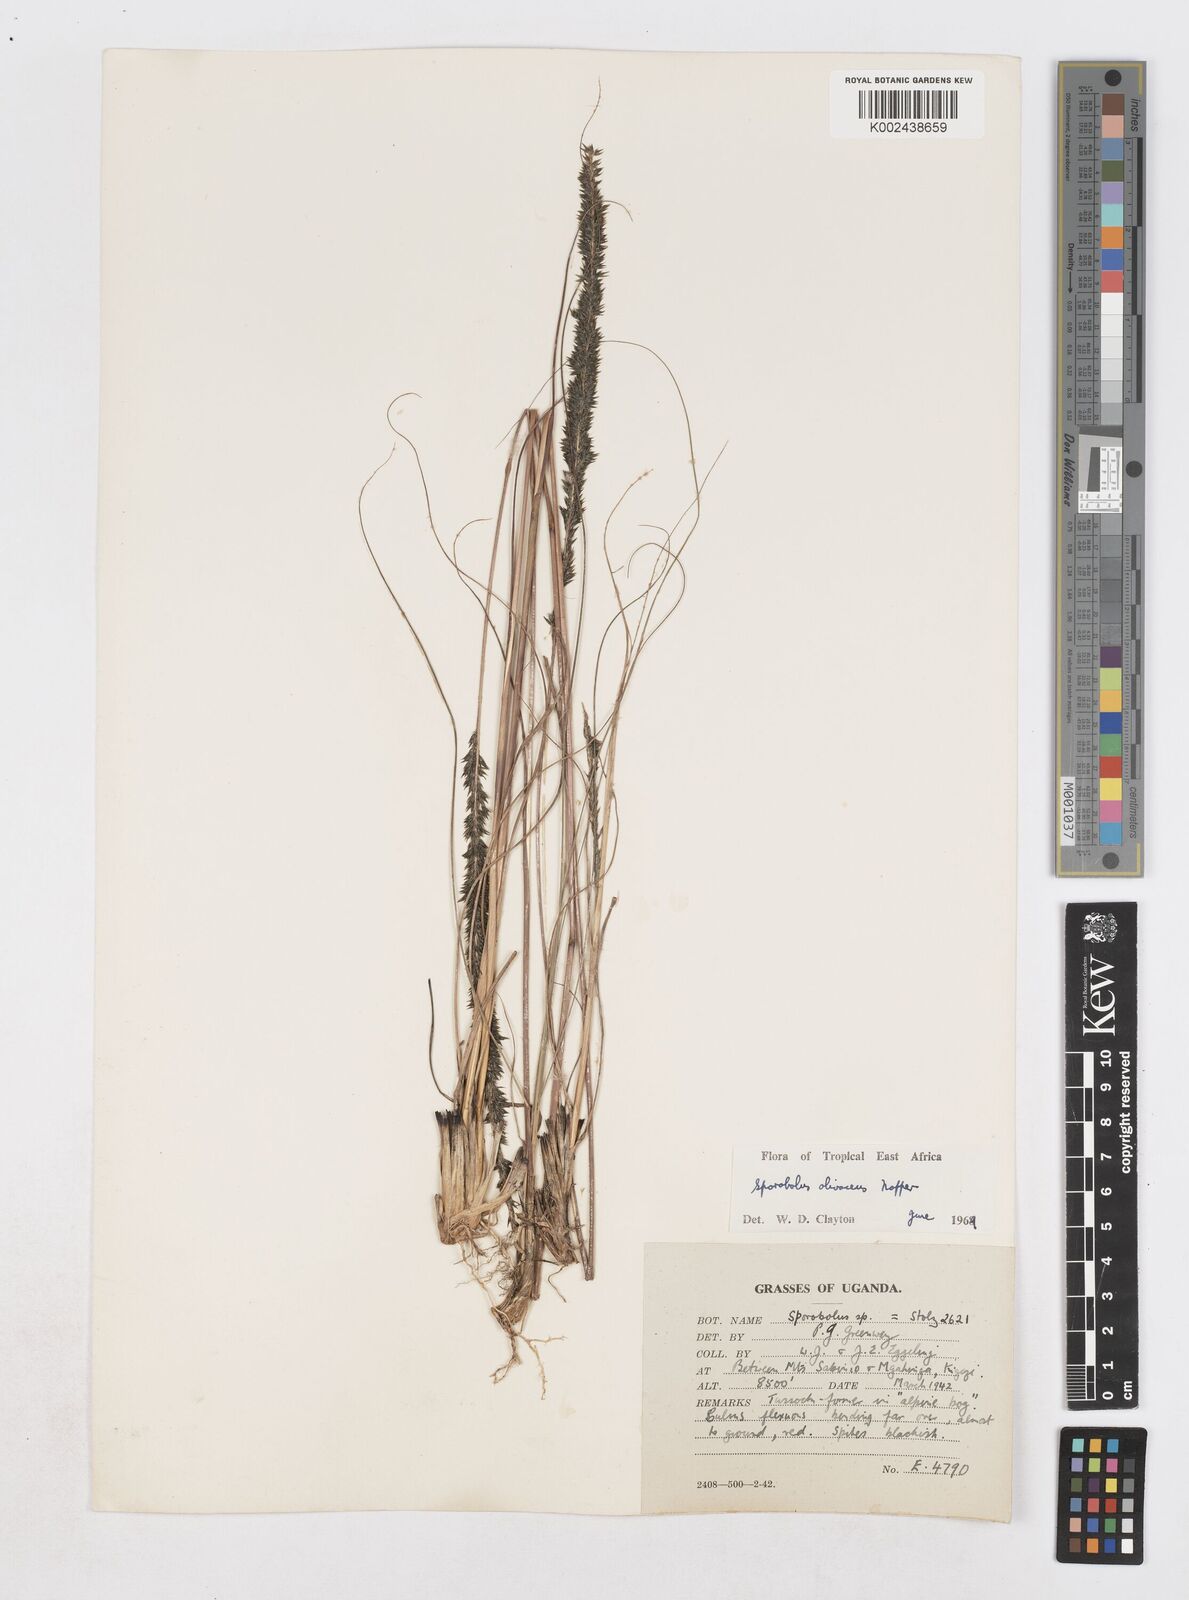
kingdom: Plantae
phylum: Tracheophyta
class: Liliopsida
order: Poales
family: Poaceae
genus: Sporobolus
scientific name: Sporobolus olivaceus
